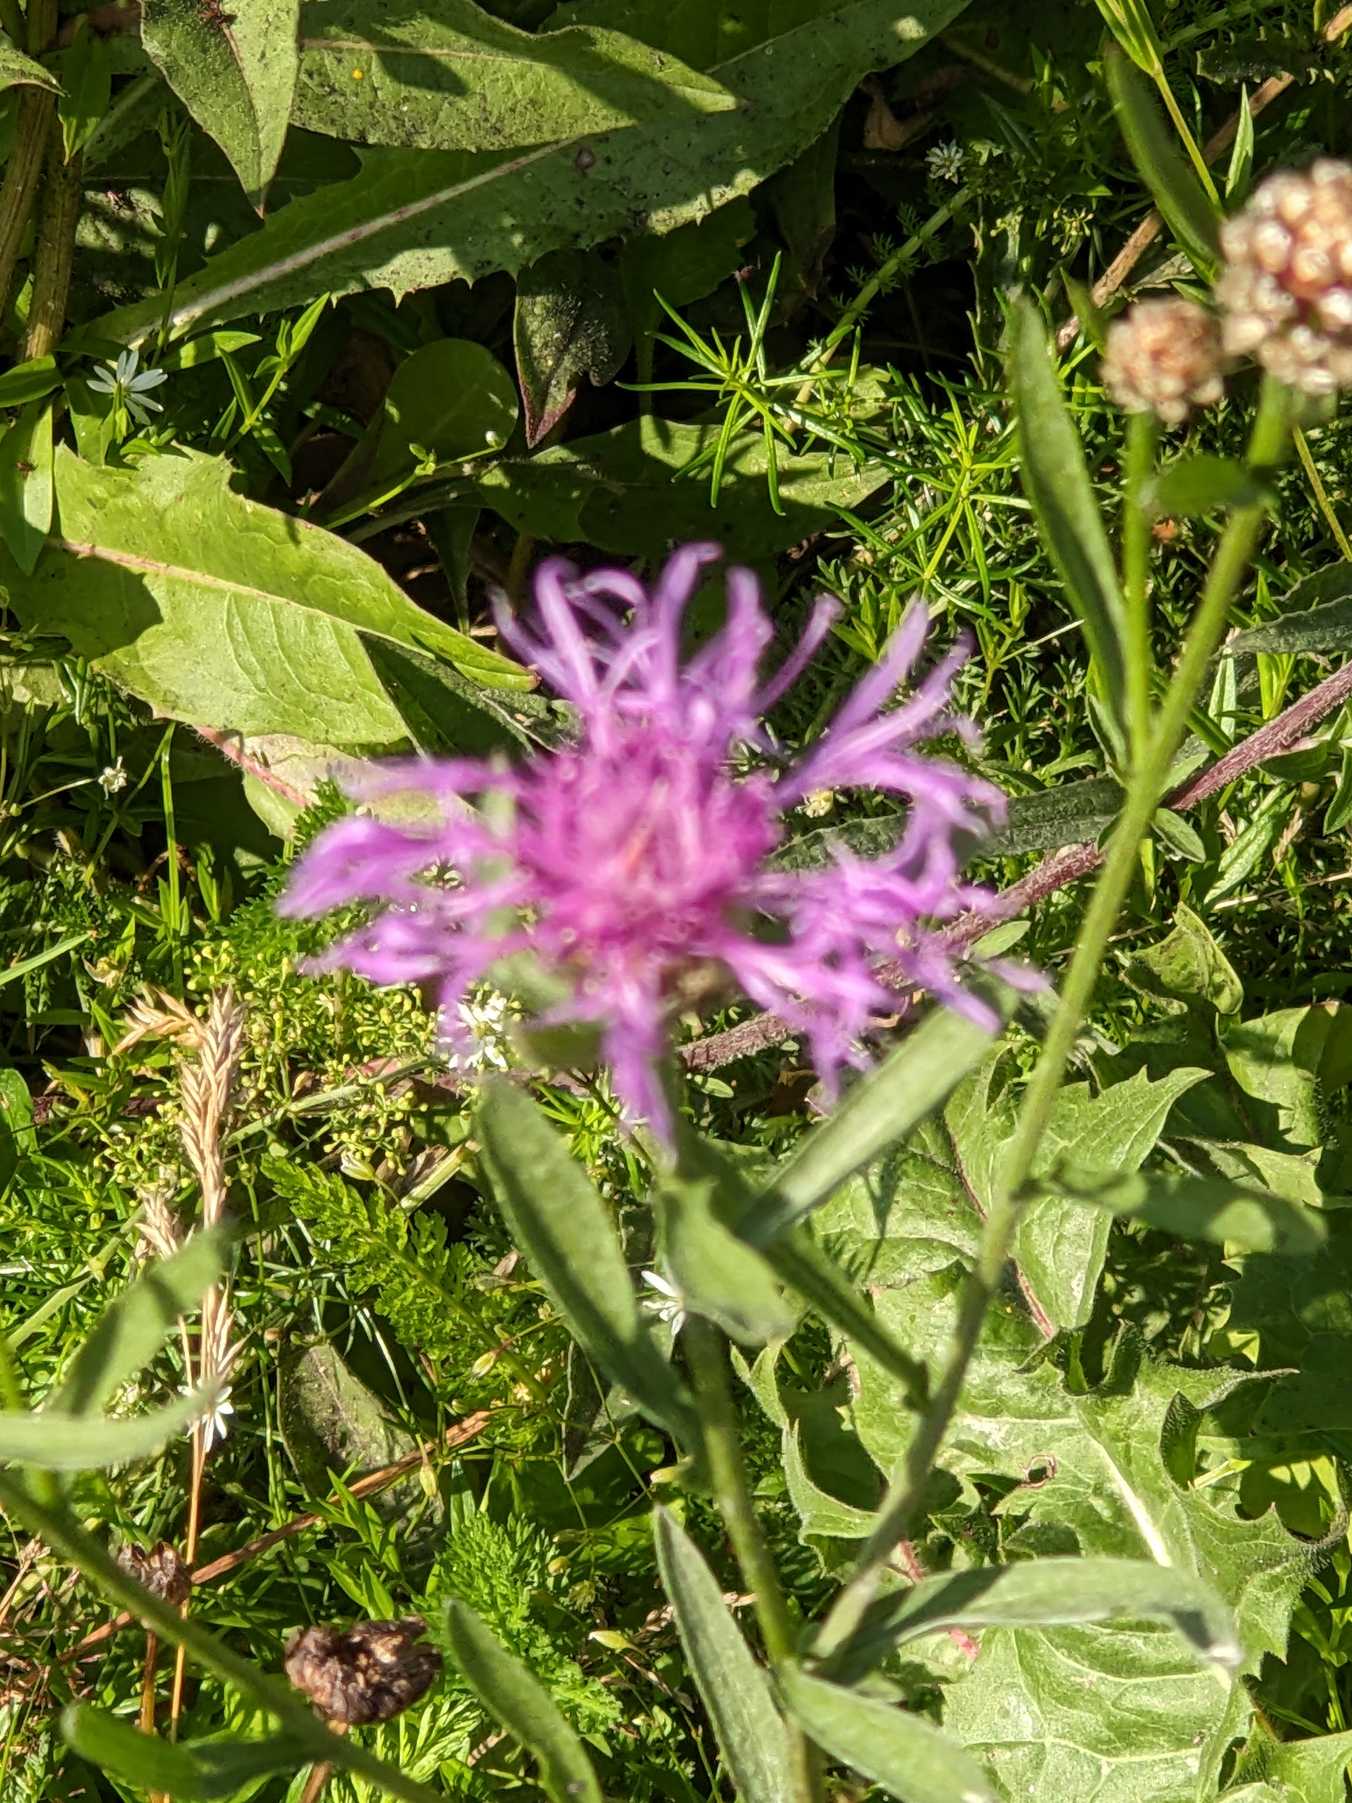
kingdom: Plantae
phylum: Tracheophyta
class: Magnoliopsida
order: Asterales
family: Asteraceae
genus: Centaurea
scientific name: Centaurea jacea
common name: Almindelig knopurt
